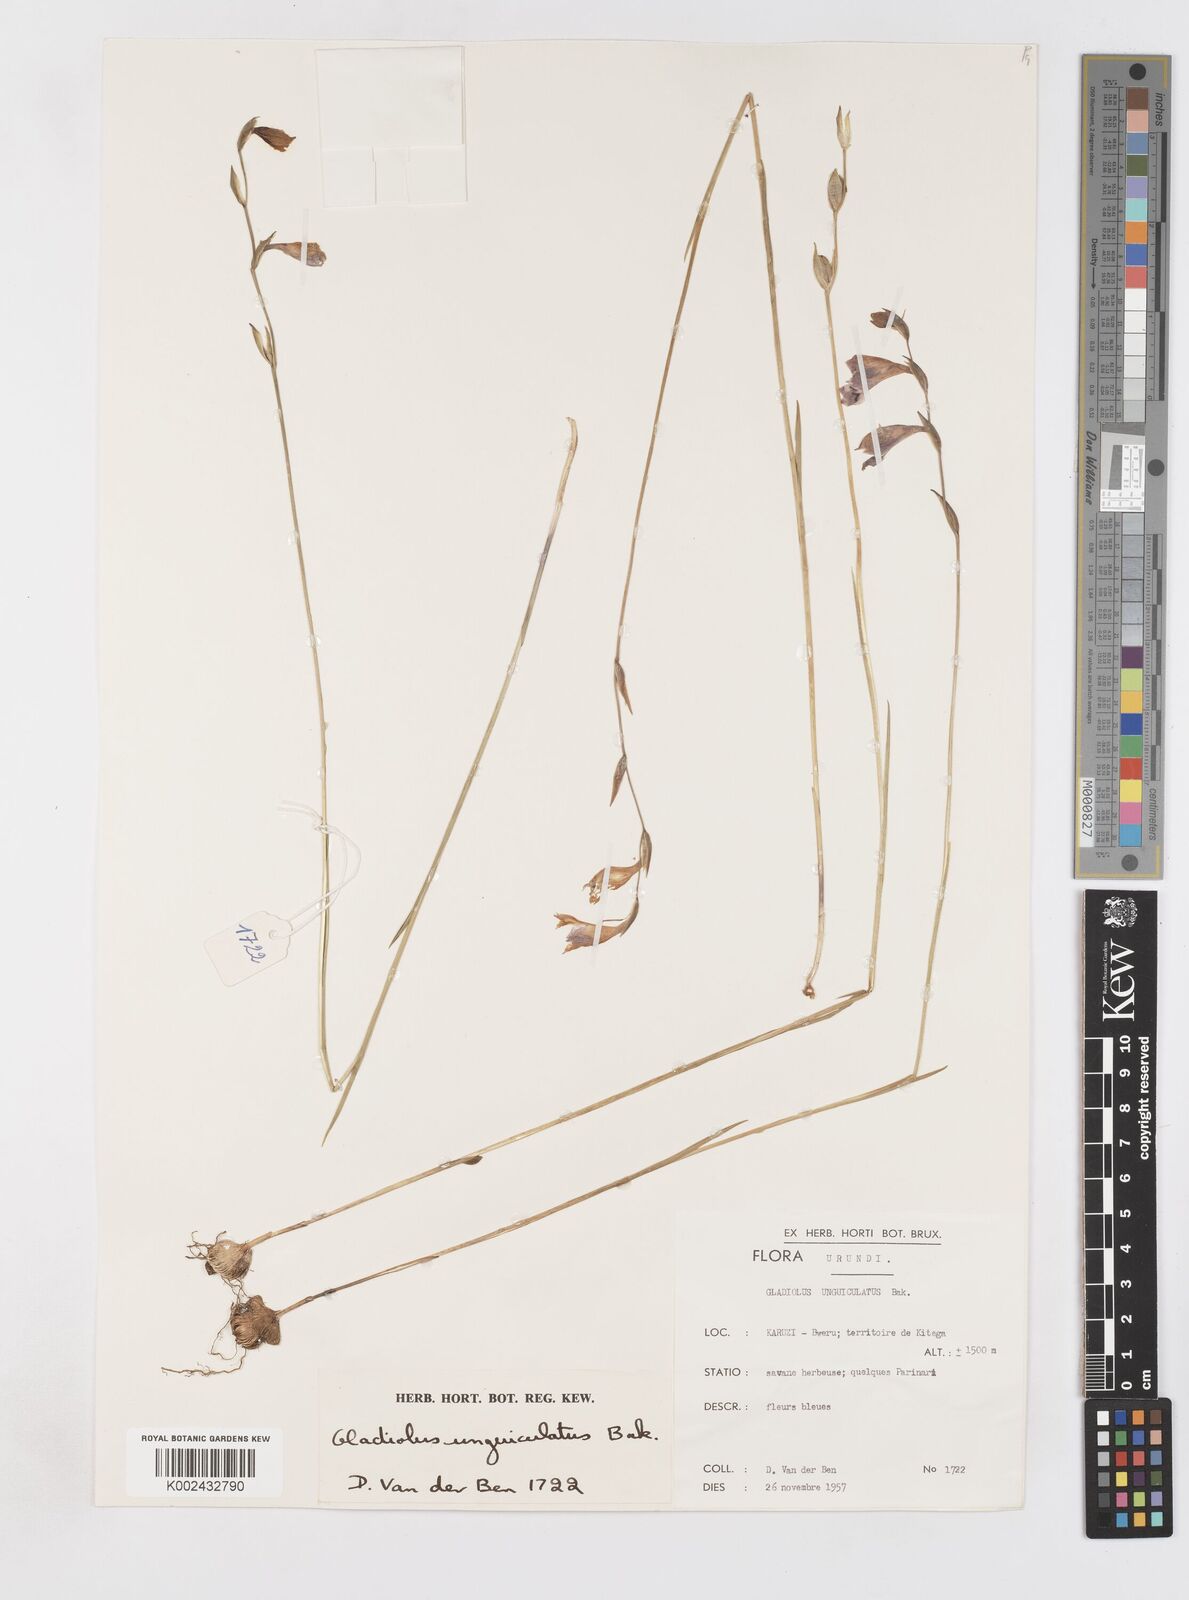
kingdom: Plantae
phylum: Tracheophyta
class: Liliopsida
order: Asparagales
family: Iridaceae
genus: Gladiolus
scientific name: Gladiolus unguiculatus
